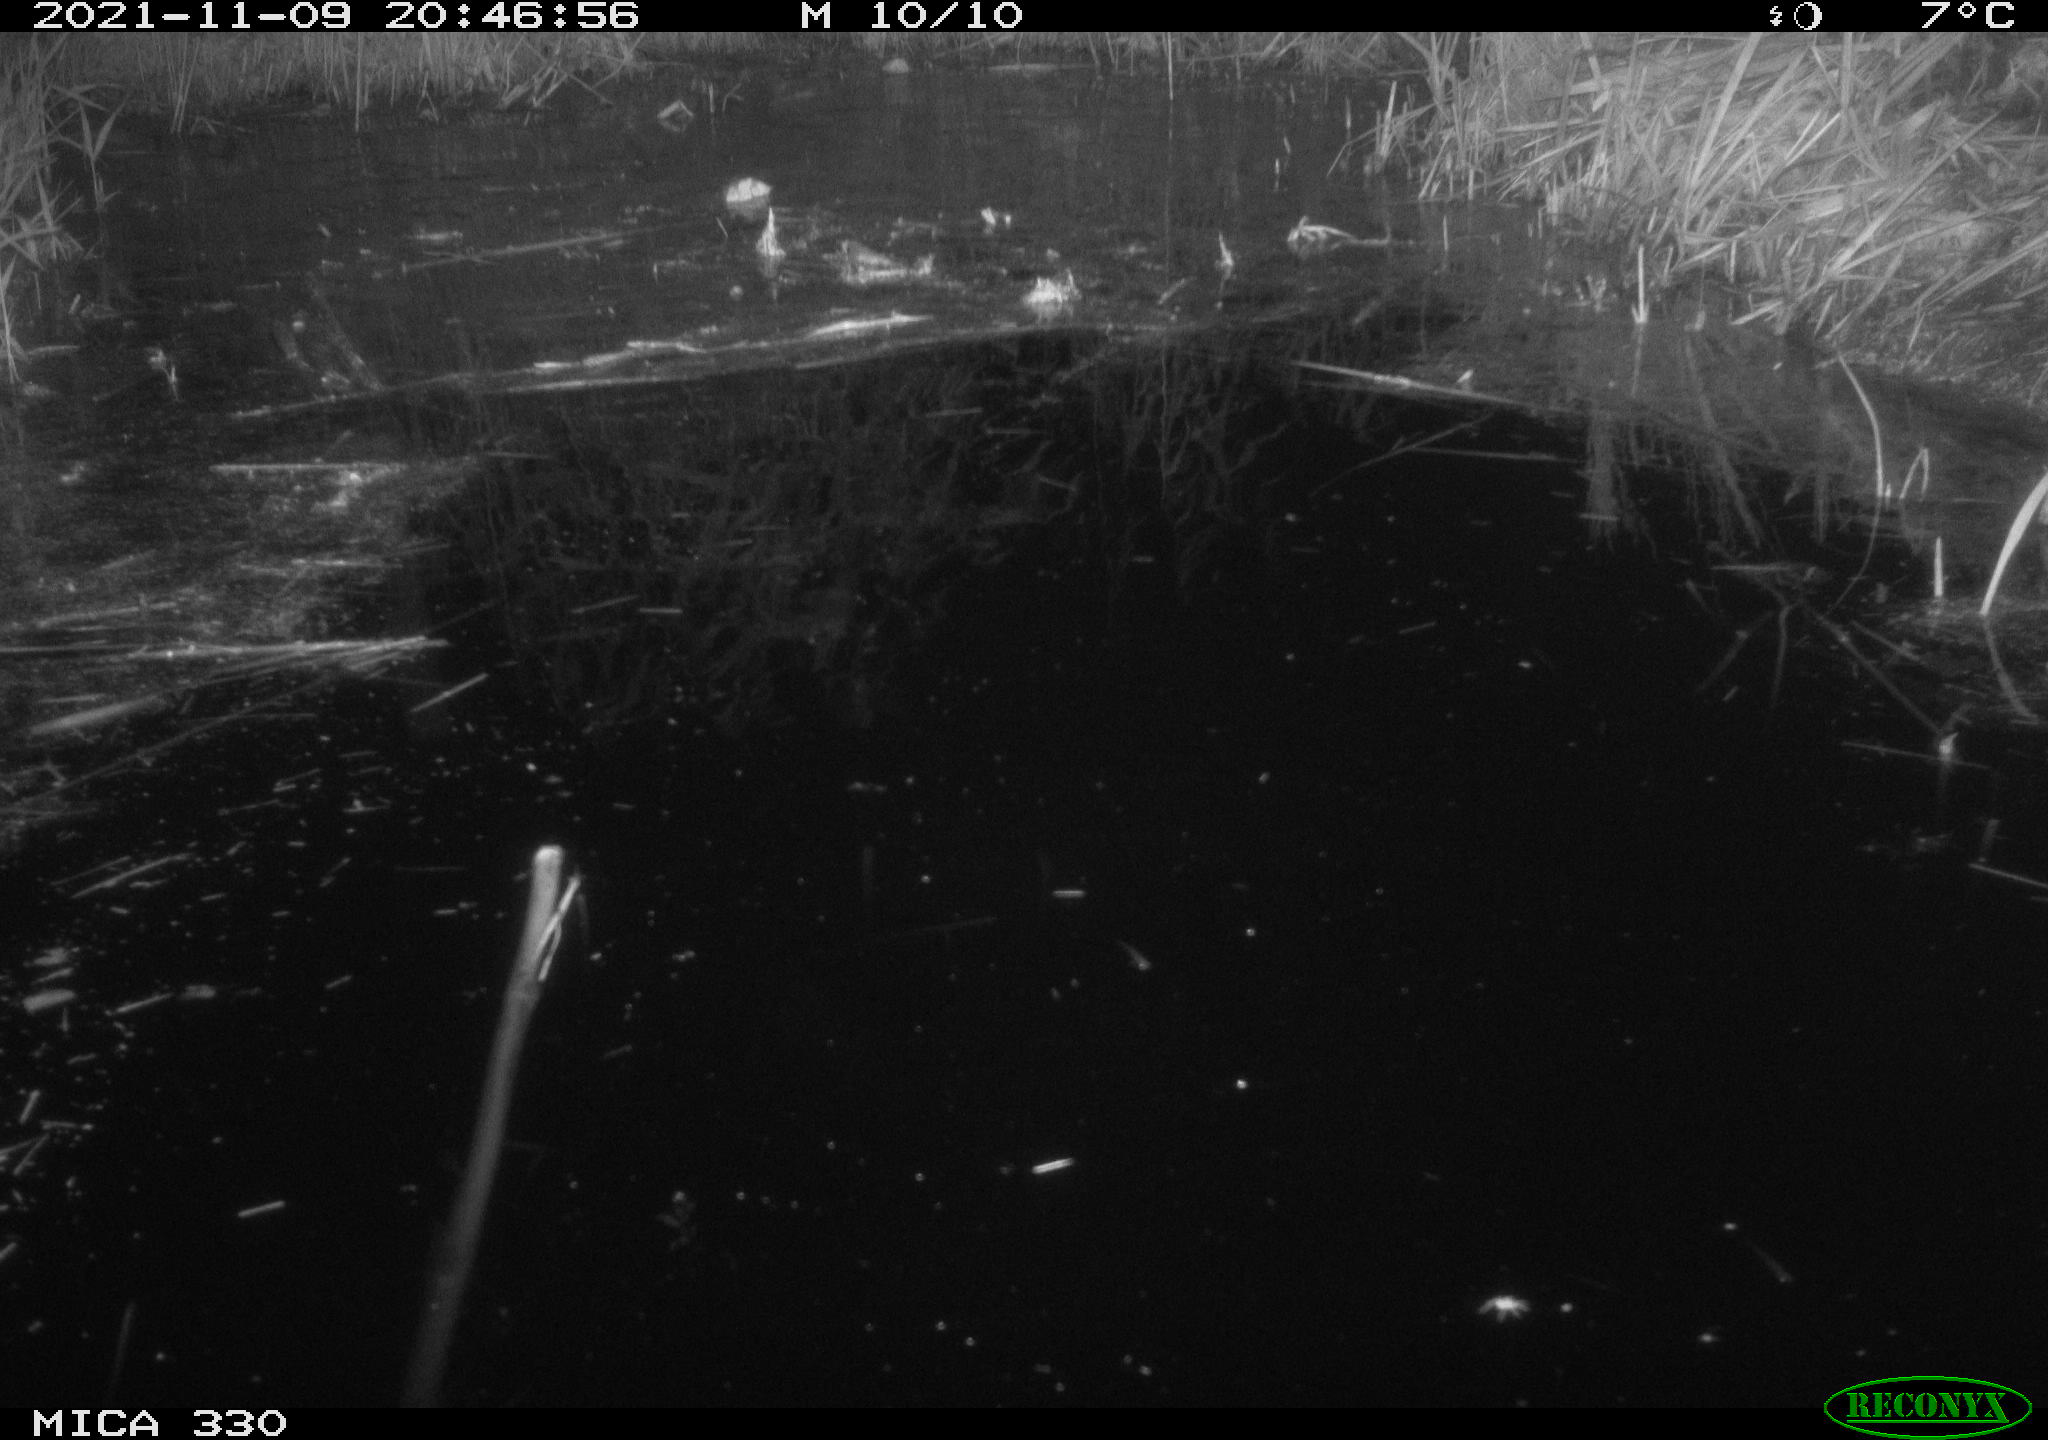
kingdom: Animalia
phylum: Chordata
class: Aves
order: Gruiformes
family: Rallidae
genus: Gallinula
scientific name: Gallinula chloropus
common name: Common moorhen
